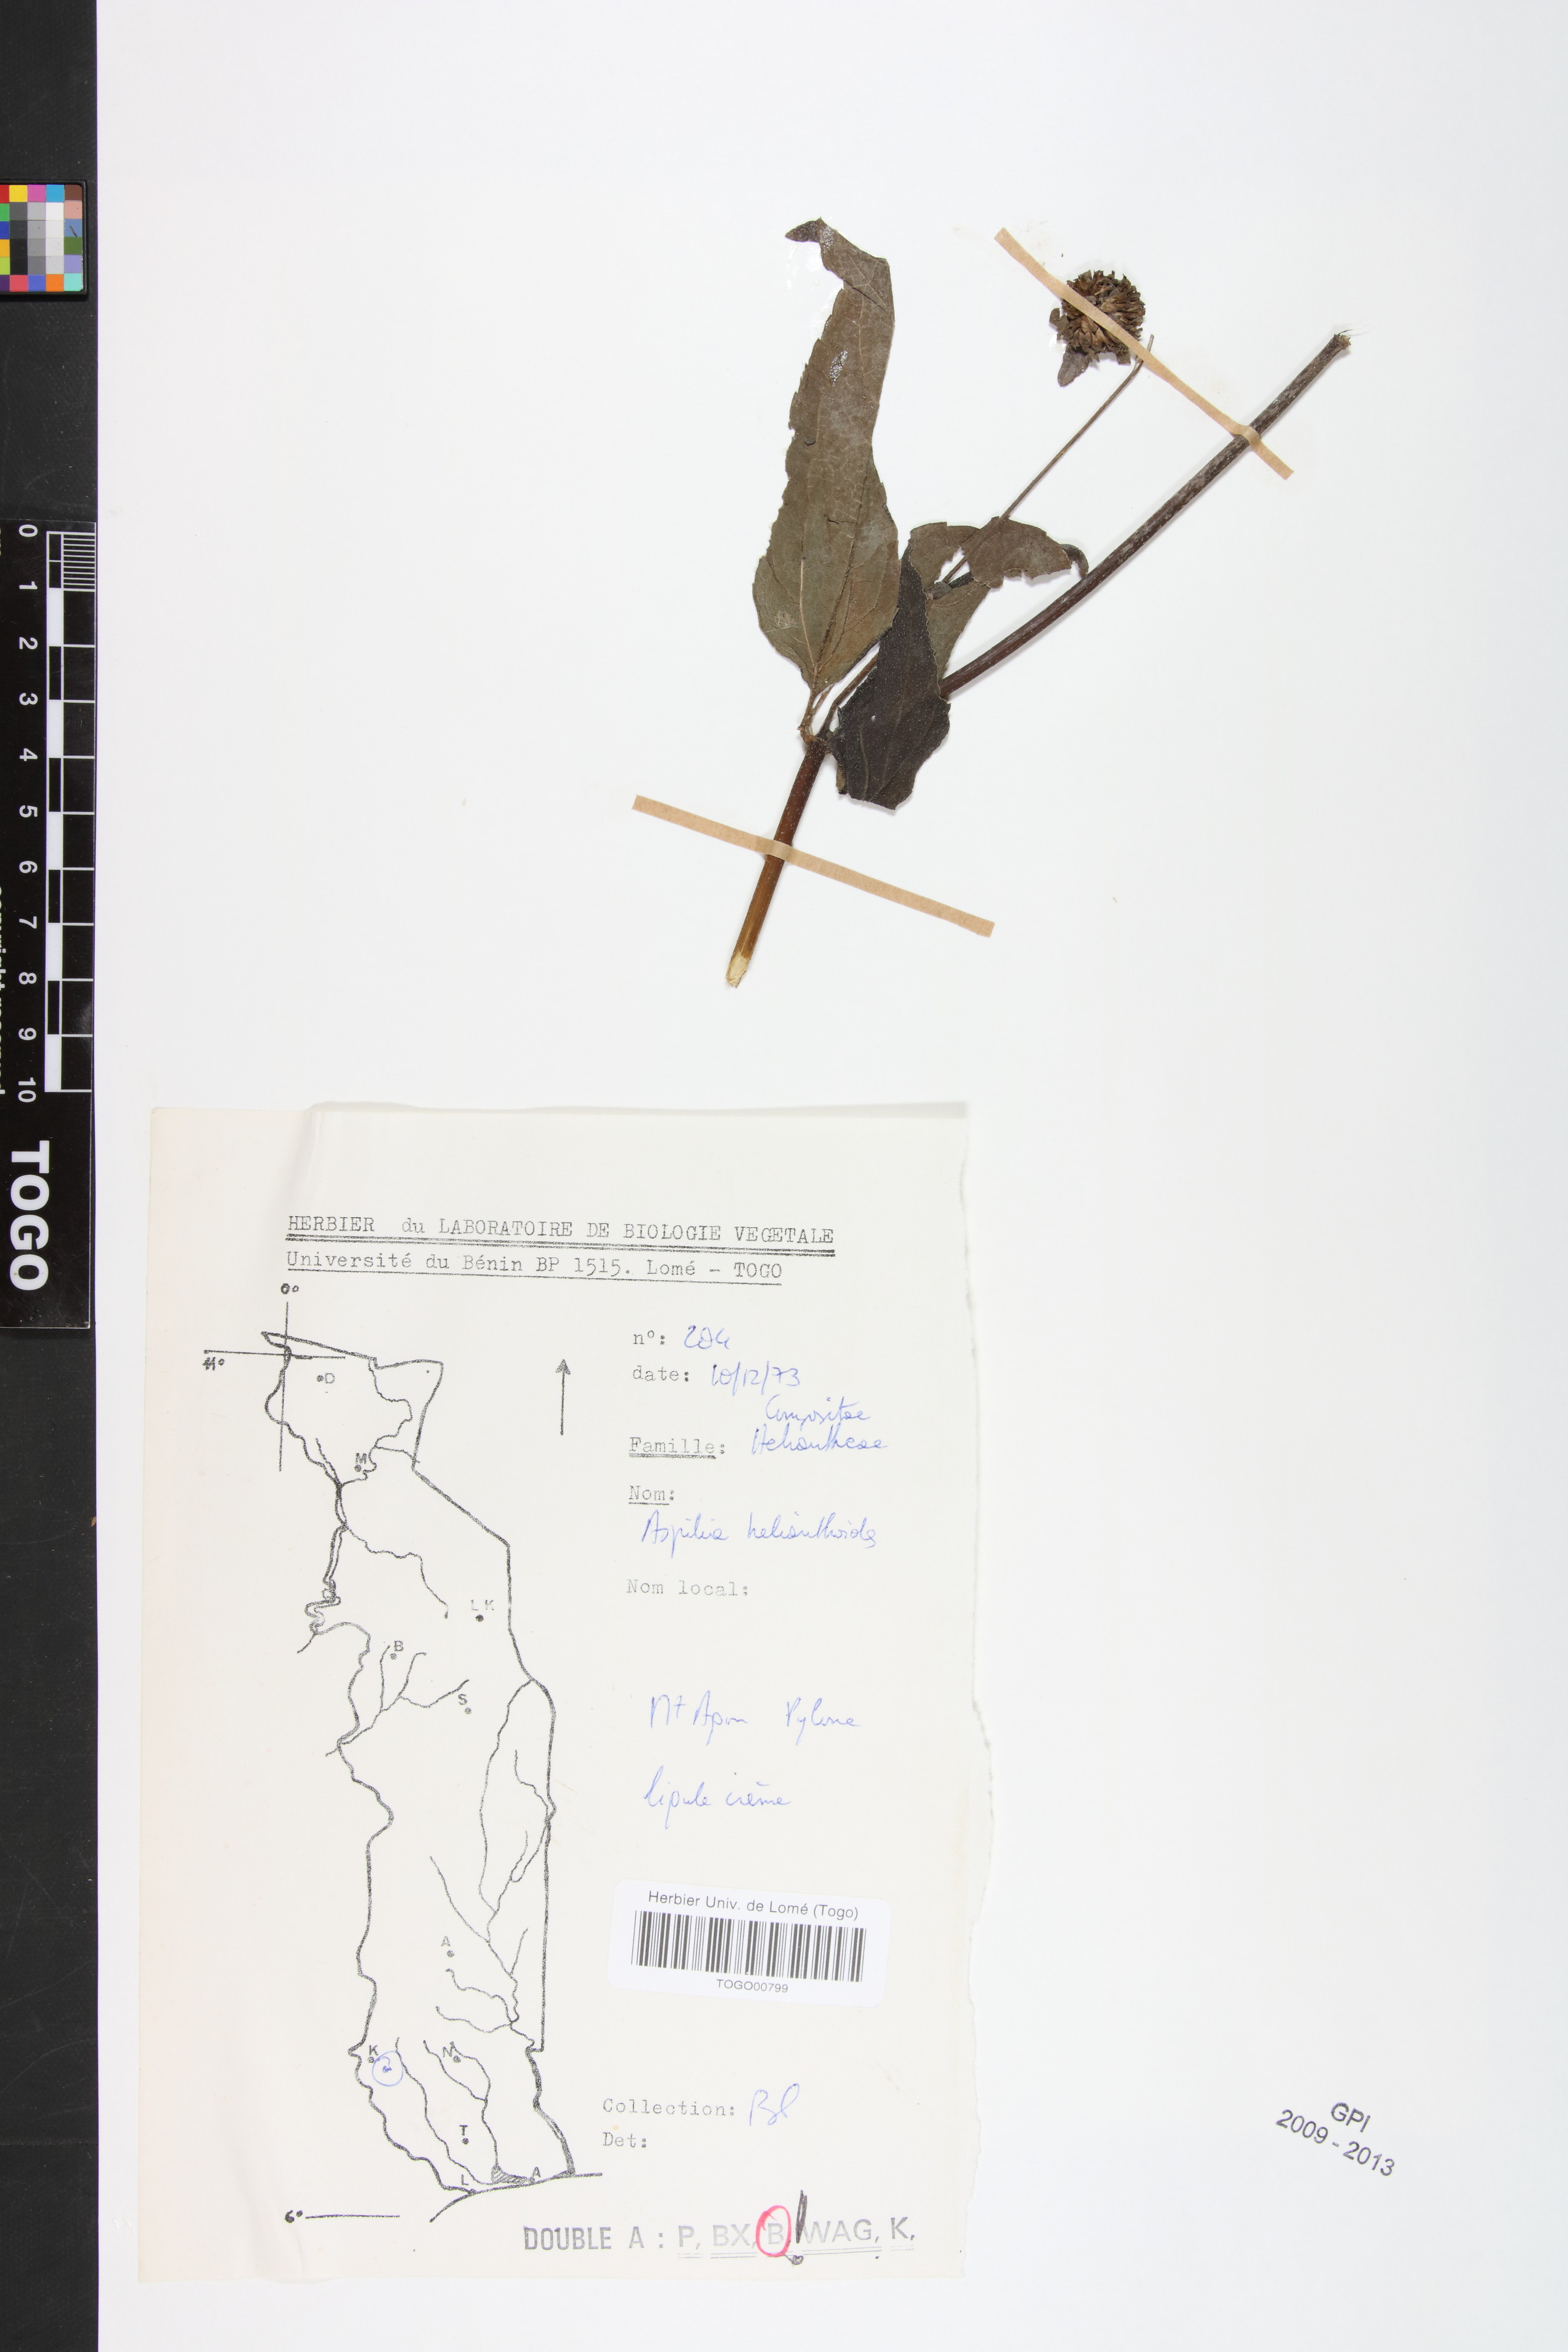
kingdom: Plantae
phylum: Tracheophyta
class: Magnoliopsida
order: Asterales
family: Asteraceae
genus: Aspilia
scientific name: Aspilia helianthoides
